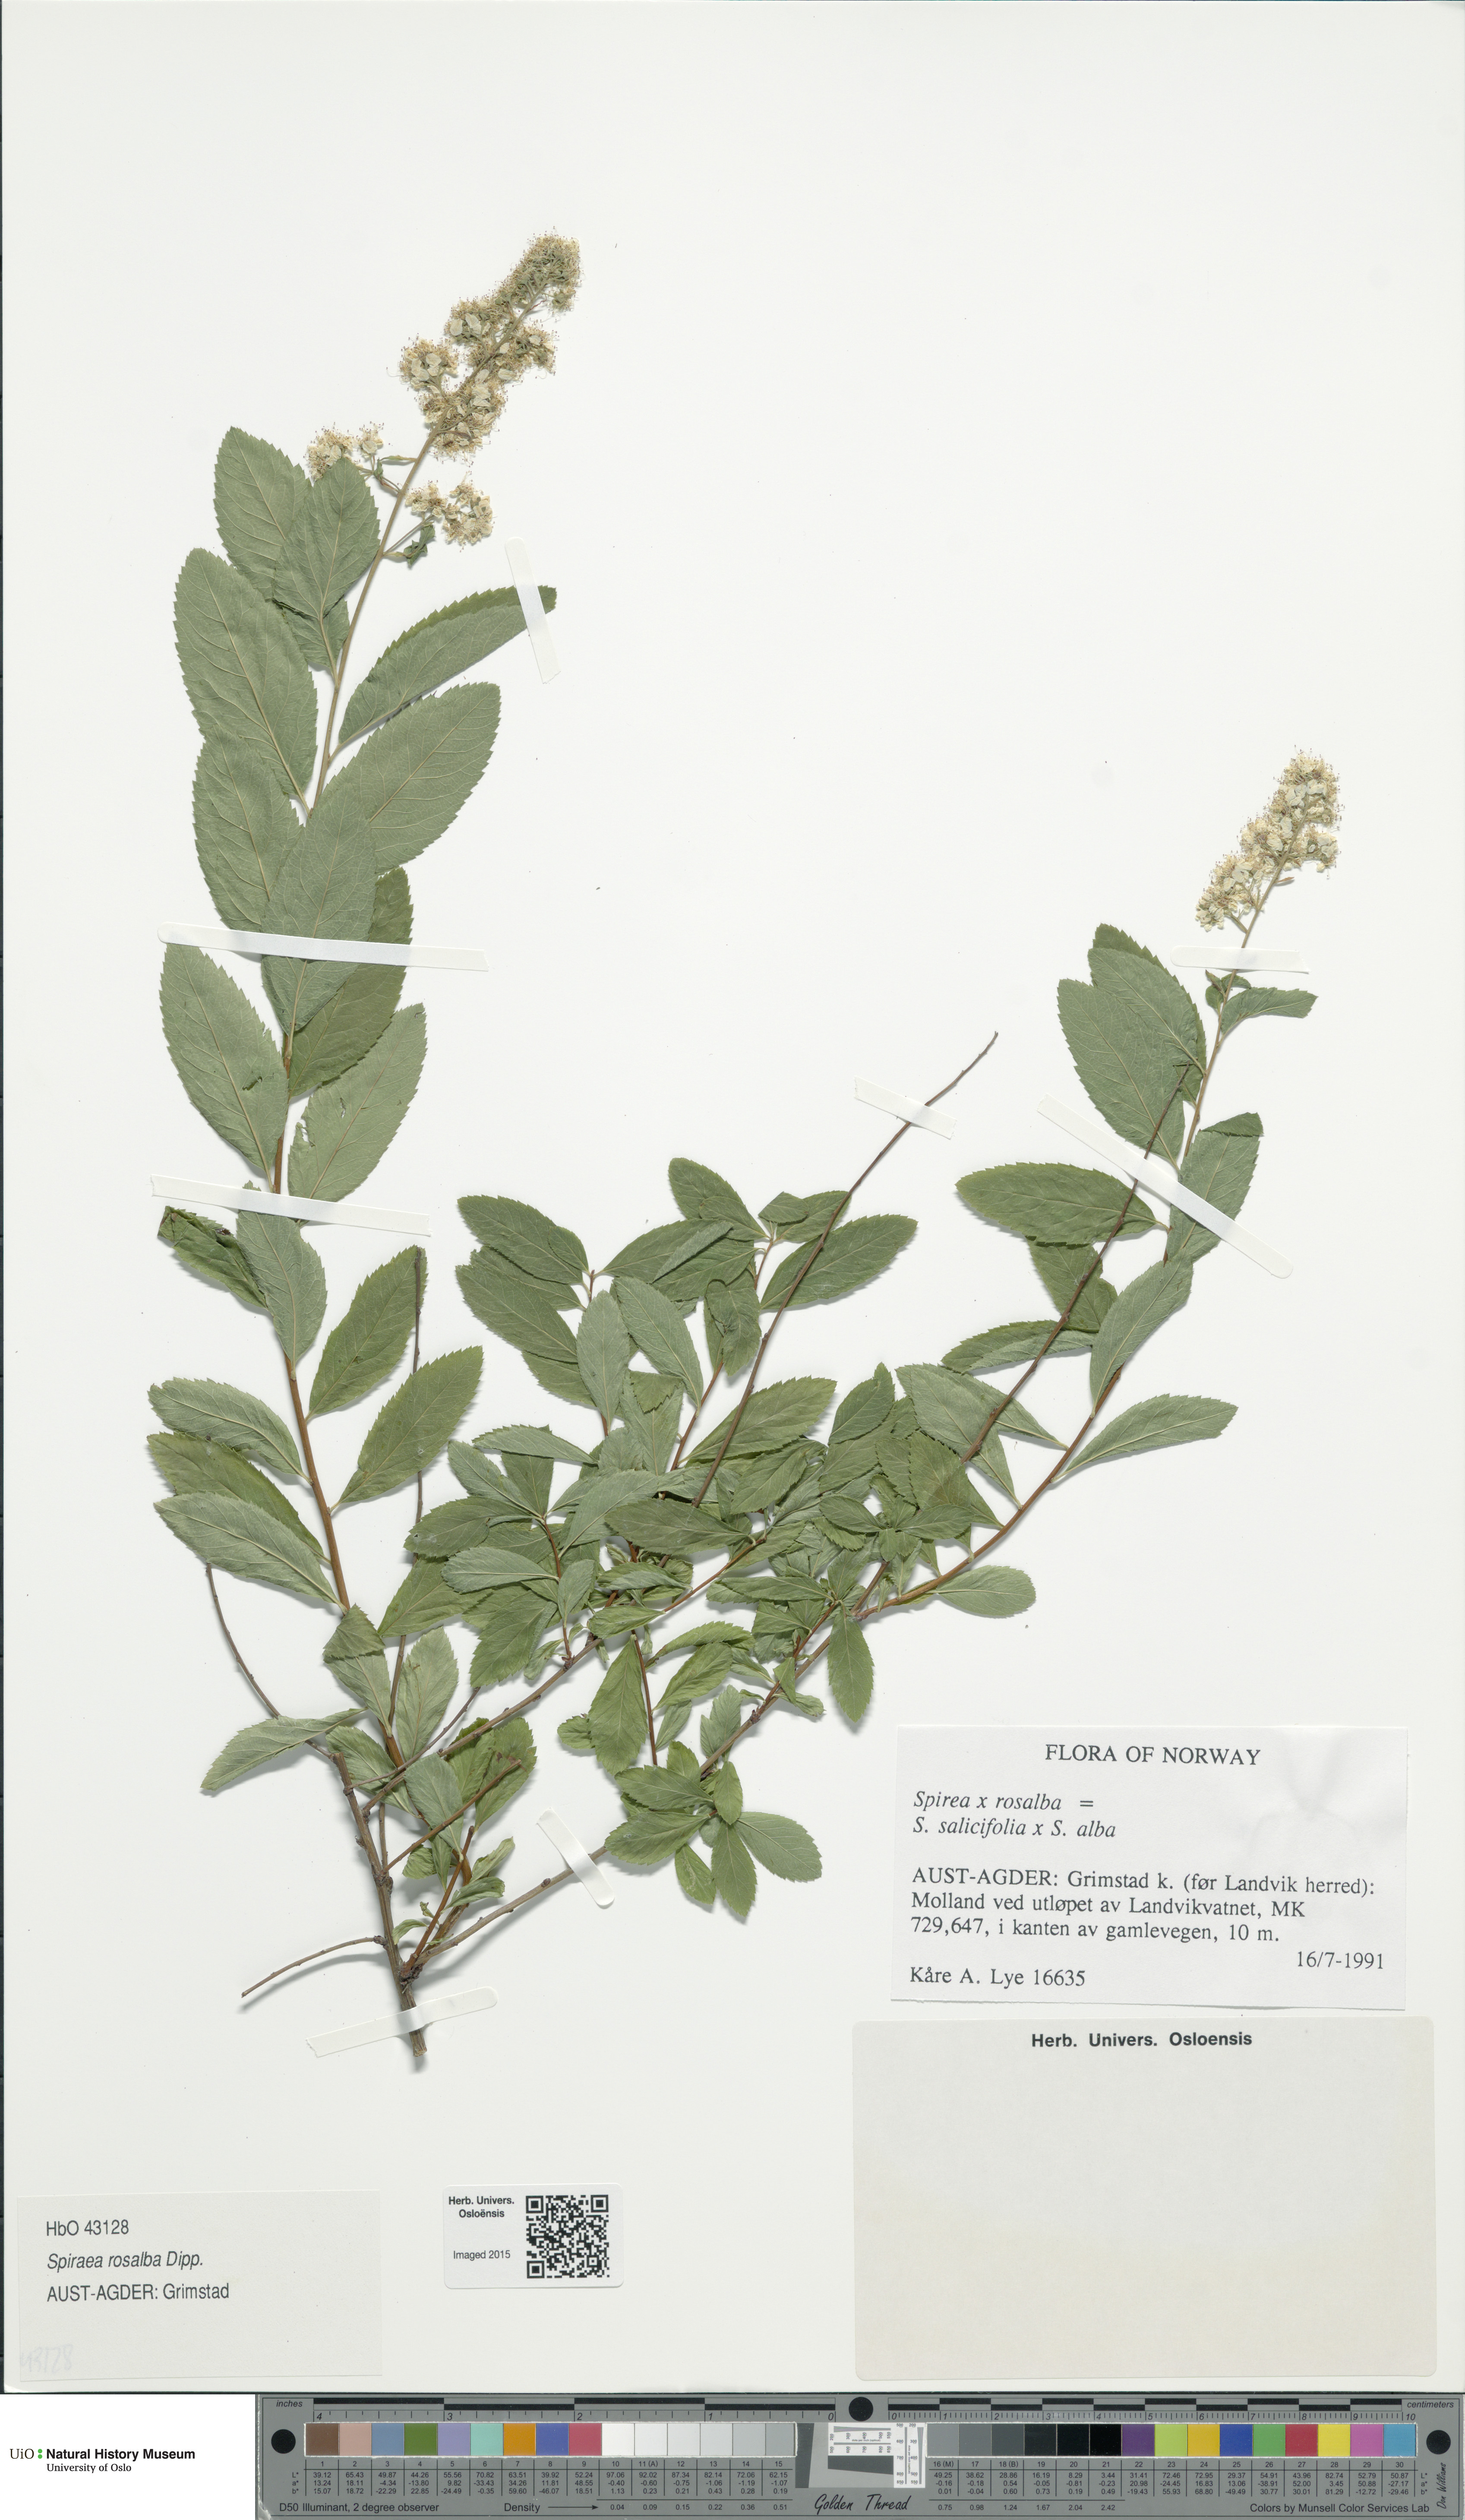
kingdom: Plantae
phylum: Tracheophyta
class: Magnoliopsida
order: Rosales
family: Rosaceae
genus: Spiraea
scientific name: Spiraea rosalba
